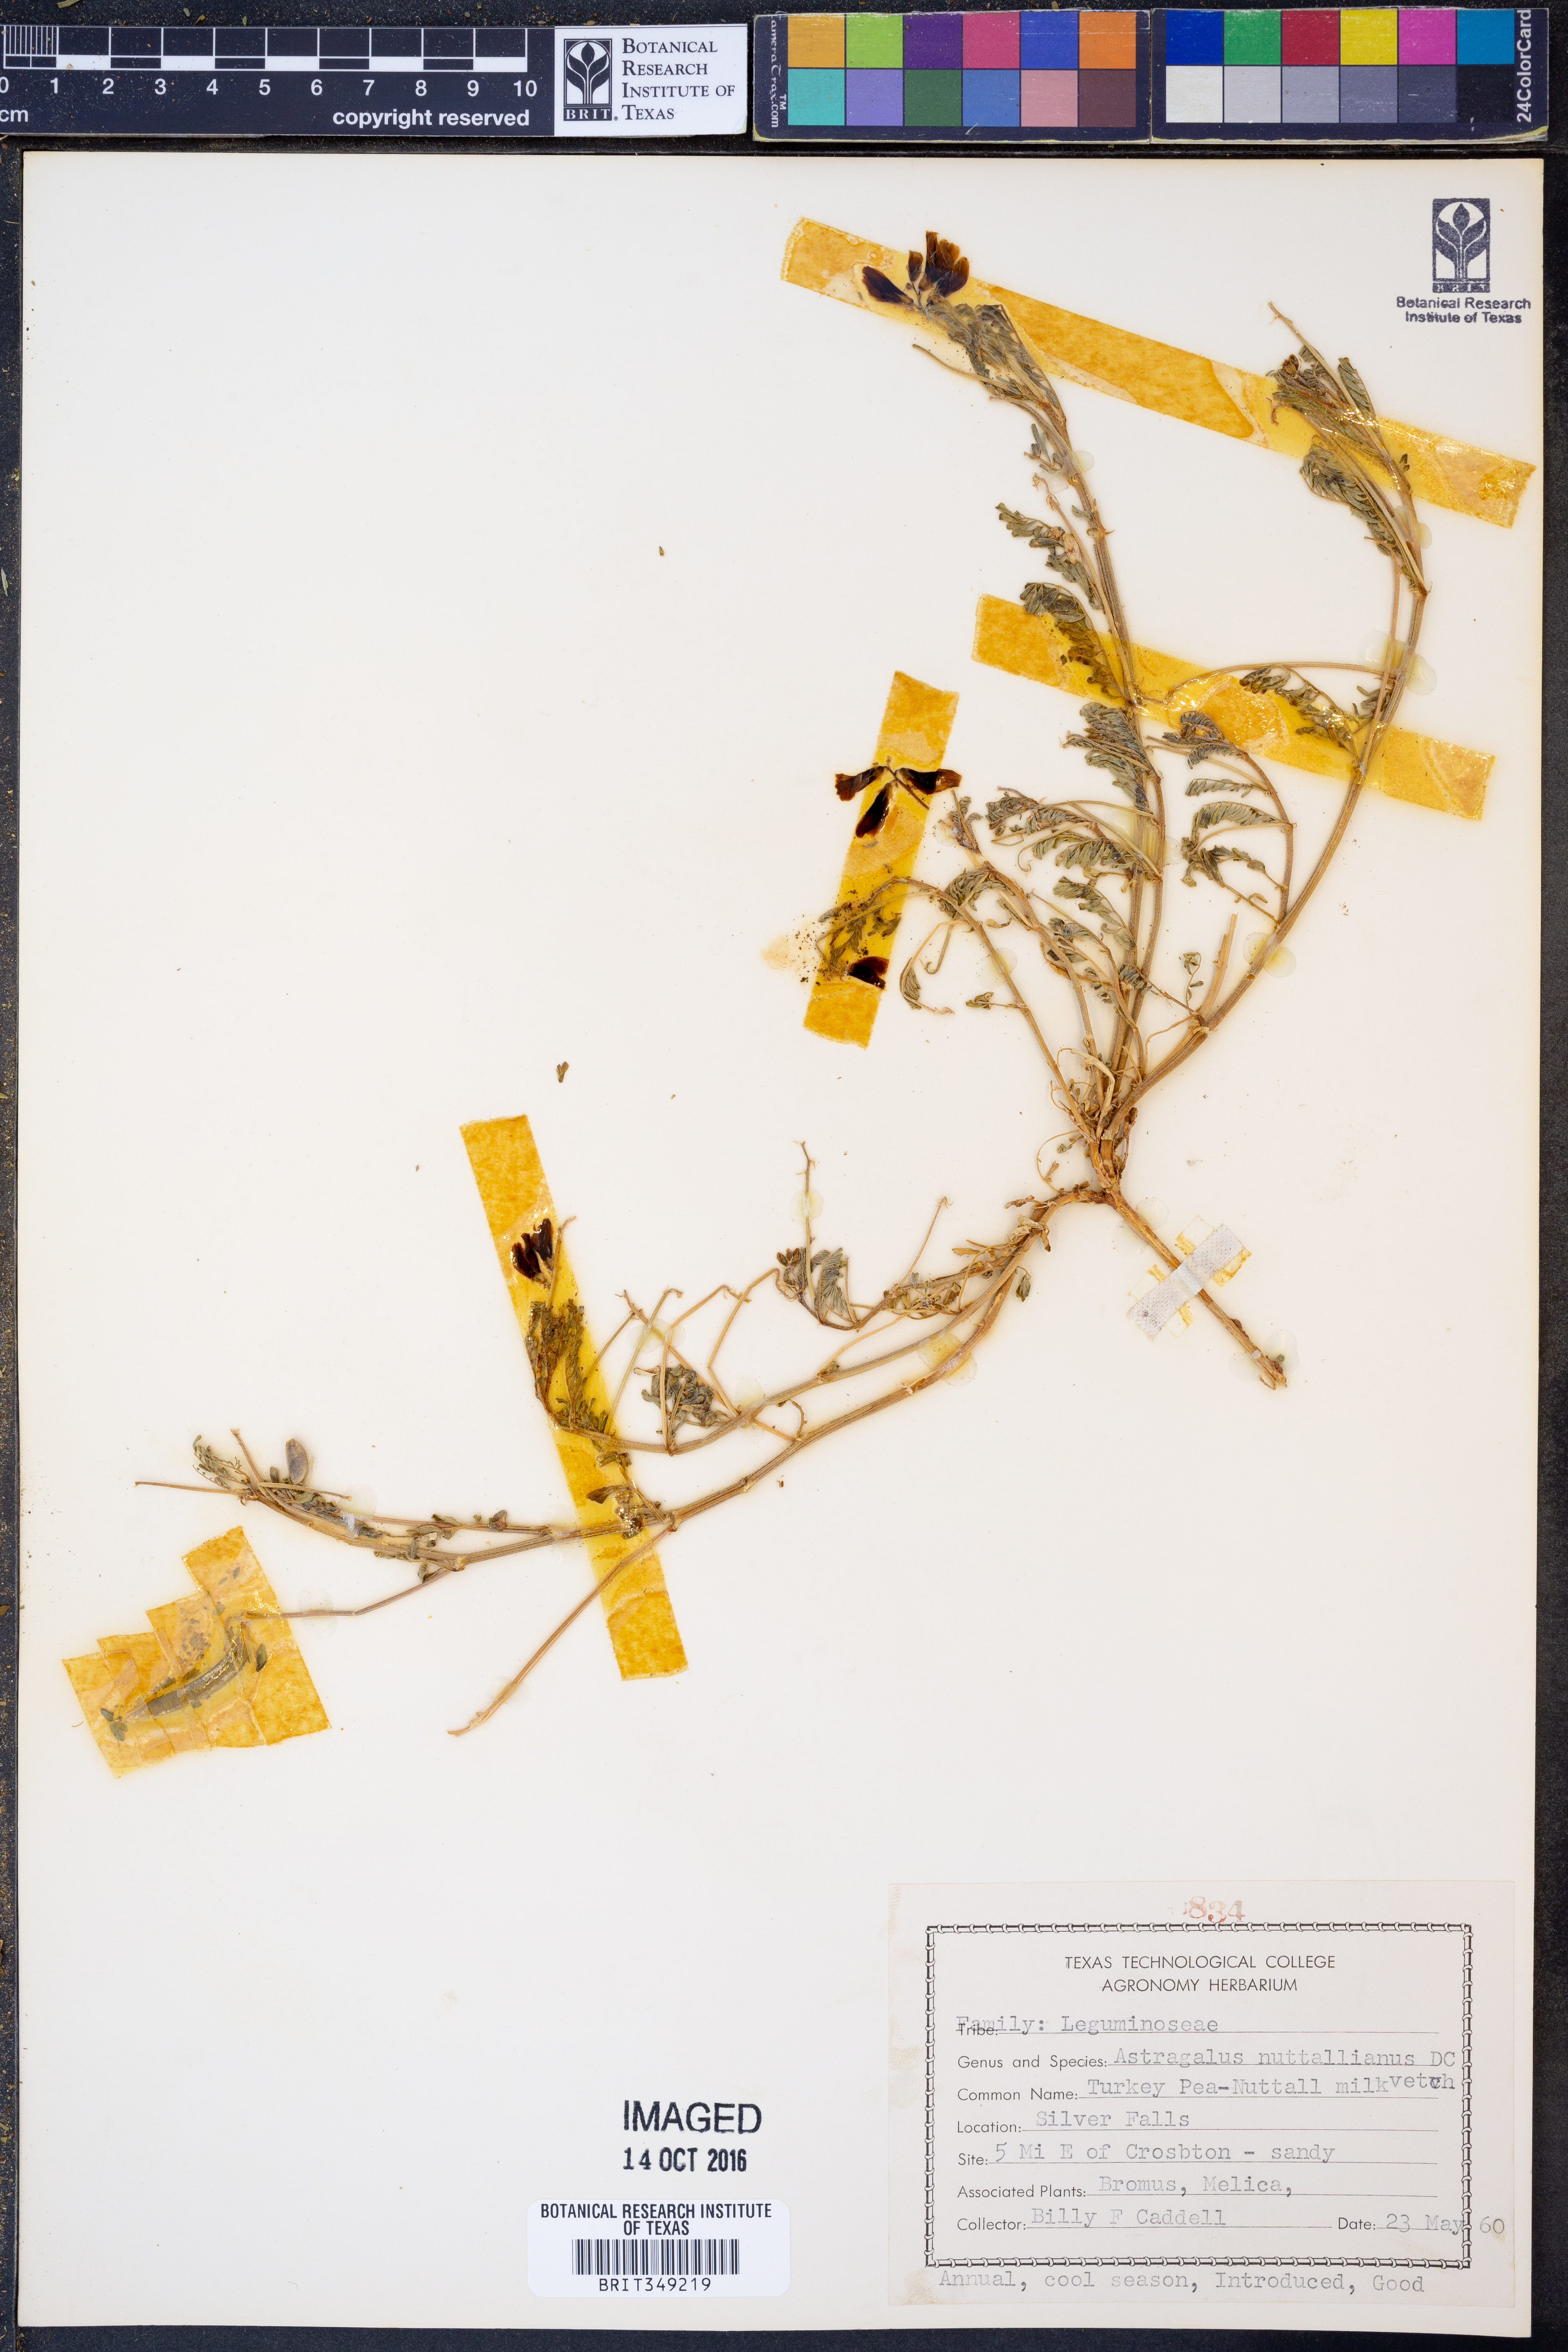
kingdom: Plantae
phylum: Tracheophyta
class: Magnoliopsida
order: Fabales
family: Fabaceae
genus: Astragalus
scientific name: Astragalus nuttallianus
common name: Smallflowered milkvetch
